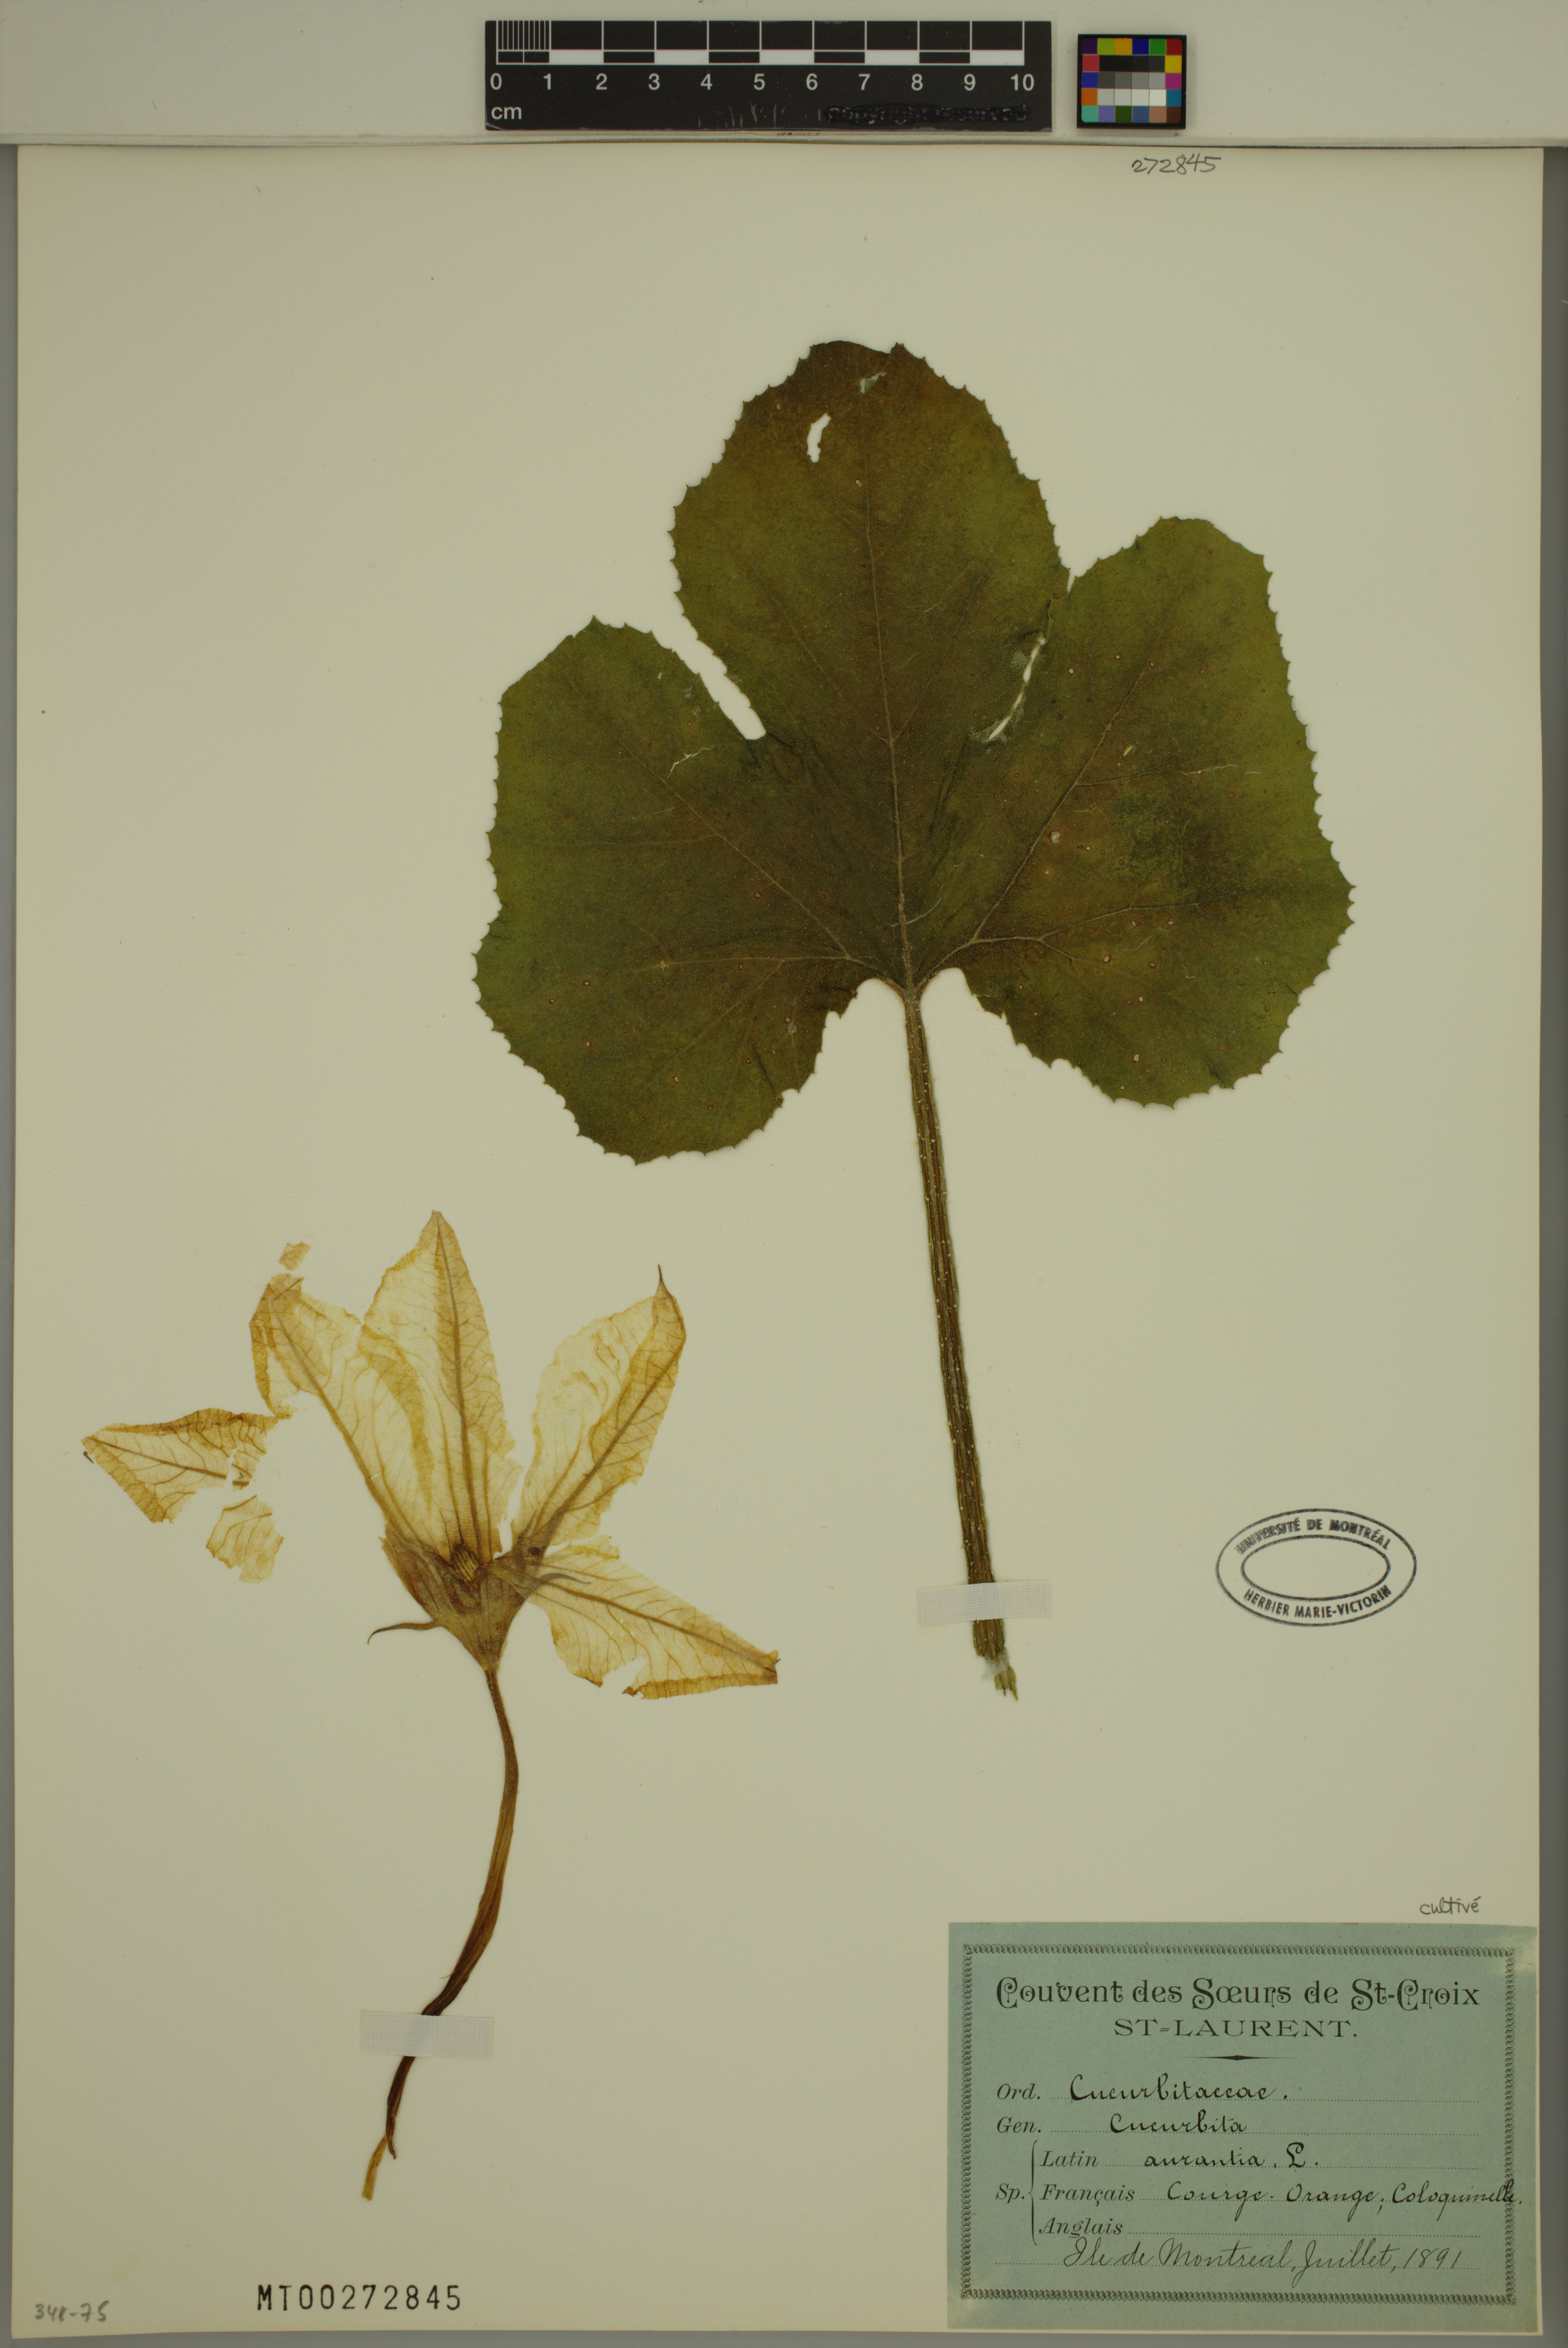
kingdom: Plantae
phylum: Tracheophyta
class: Magnoliopsida
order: Cucurbitales
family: Cucurbitaceae
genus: Cucurbita
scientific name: Cucurbita pepo
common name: Marrow
